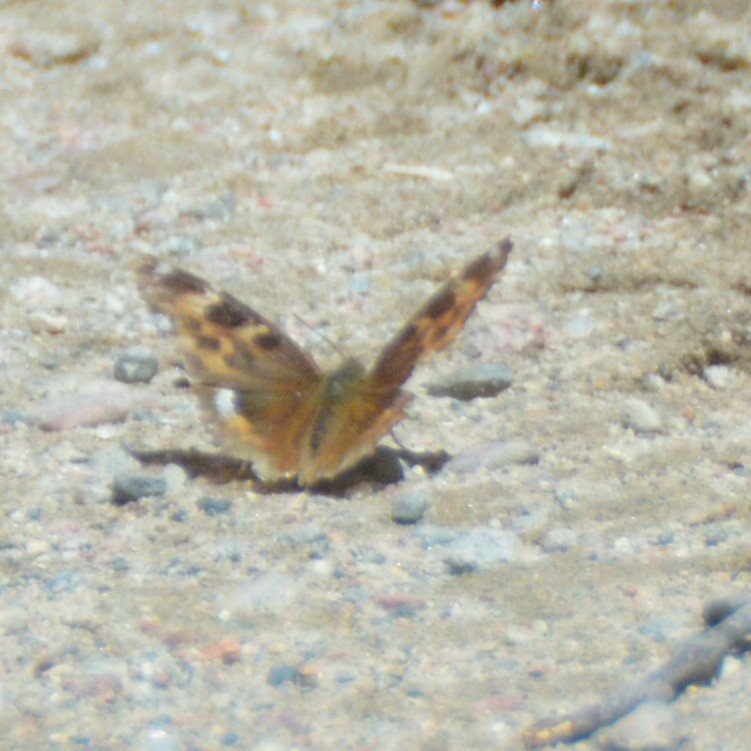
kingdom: Animalia
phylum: Arthropoda
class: Insecta
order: Lepidoptera
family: Nymphalidae
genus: Polygonia
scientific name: Polygonia vaualbum
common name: Compton Tortoiseshell
